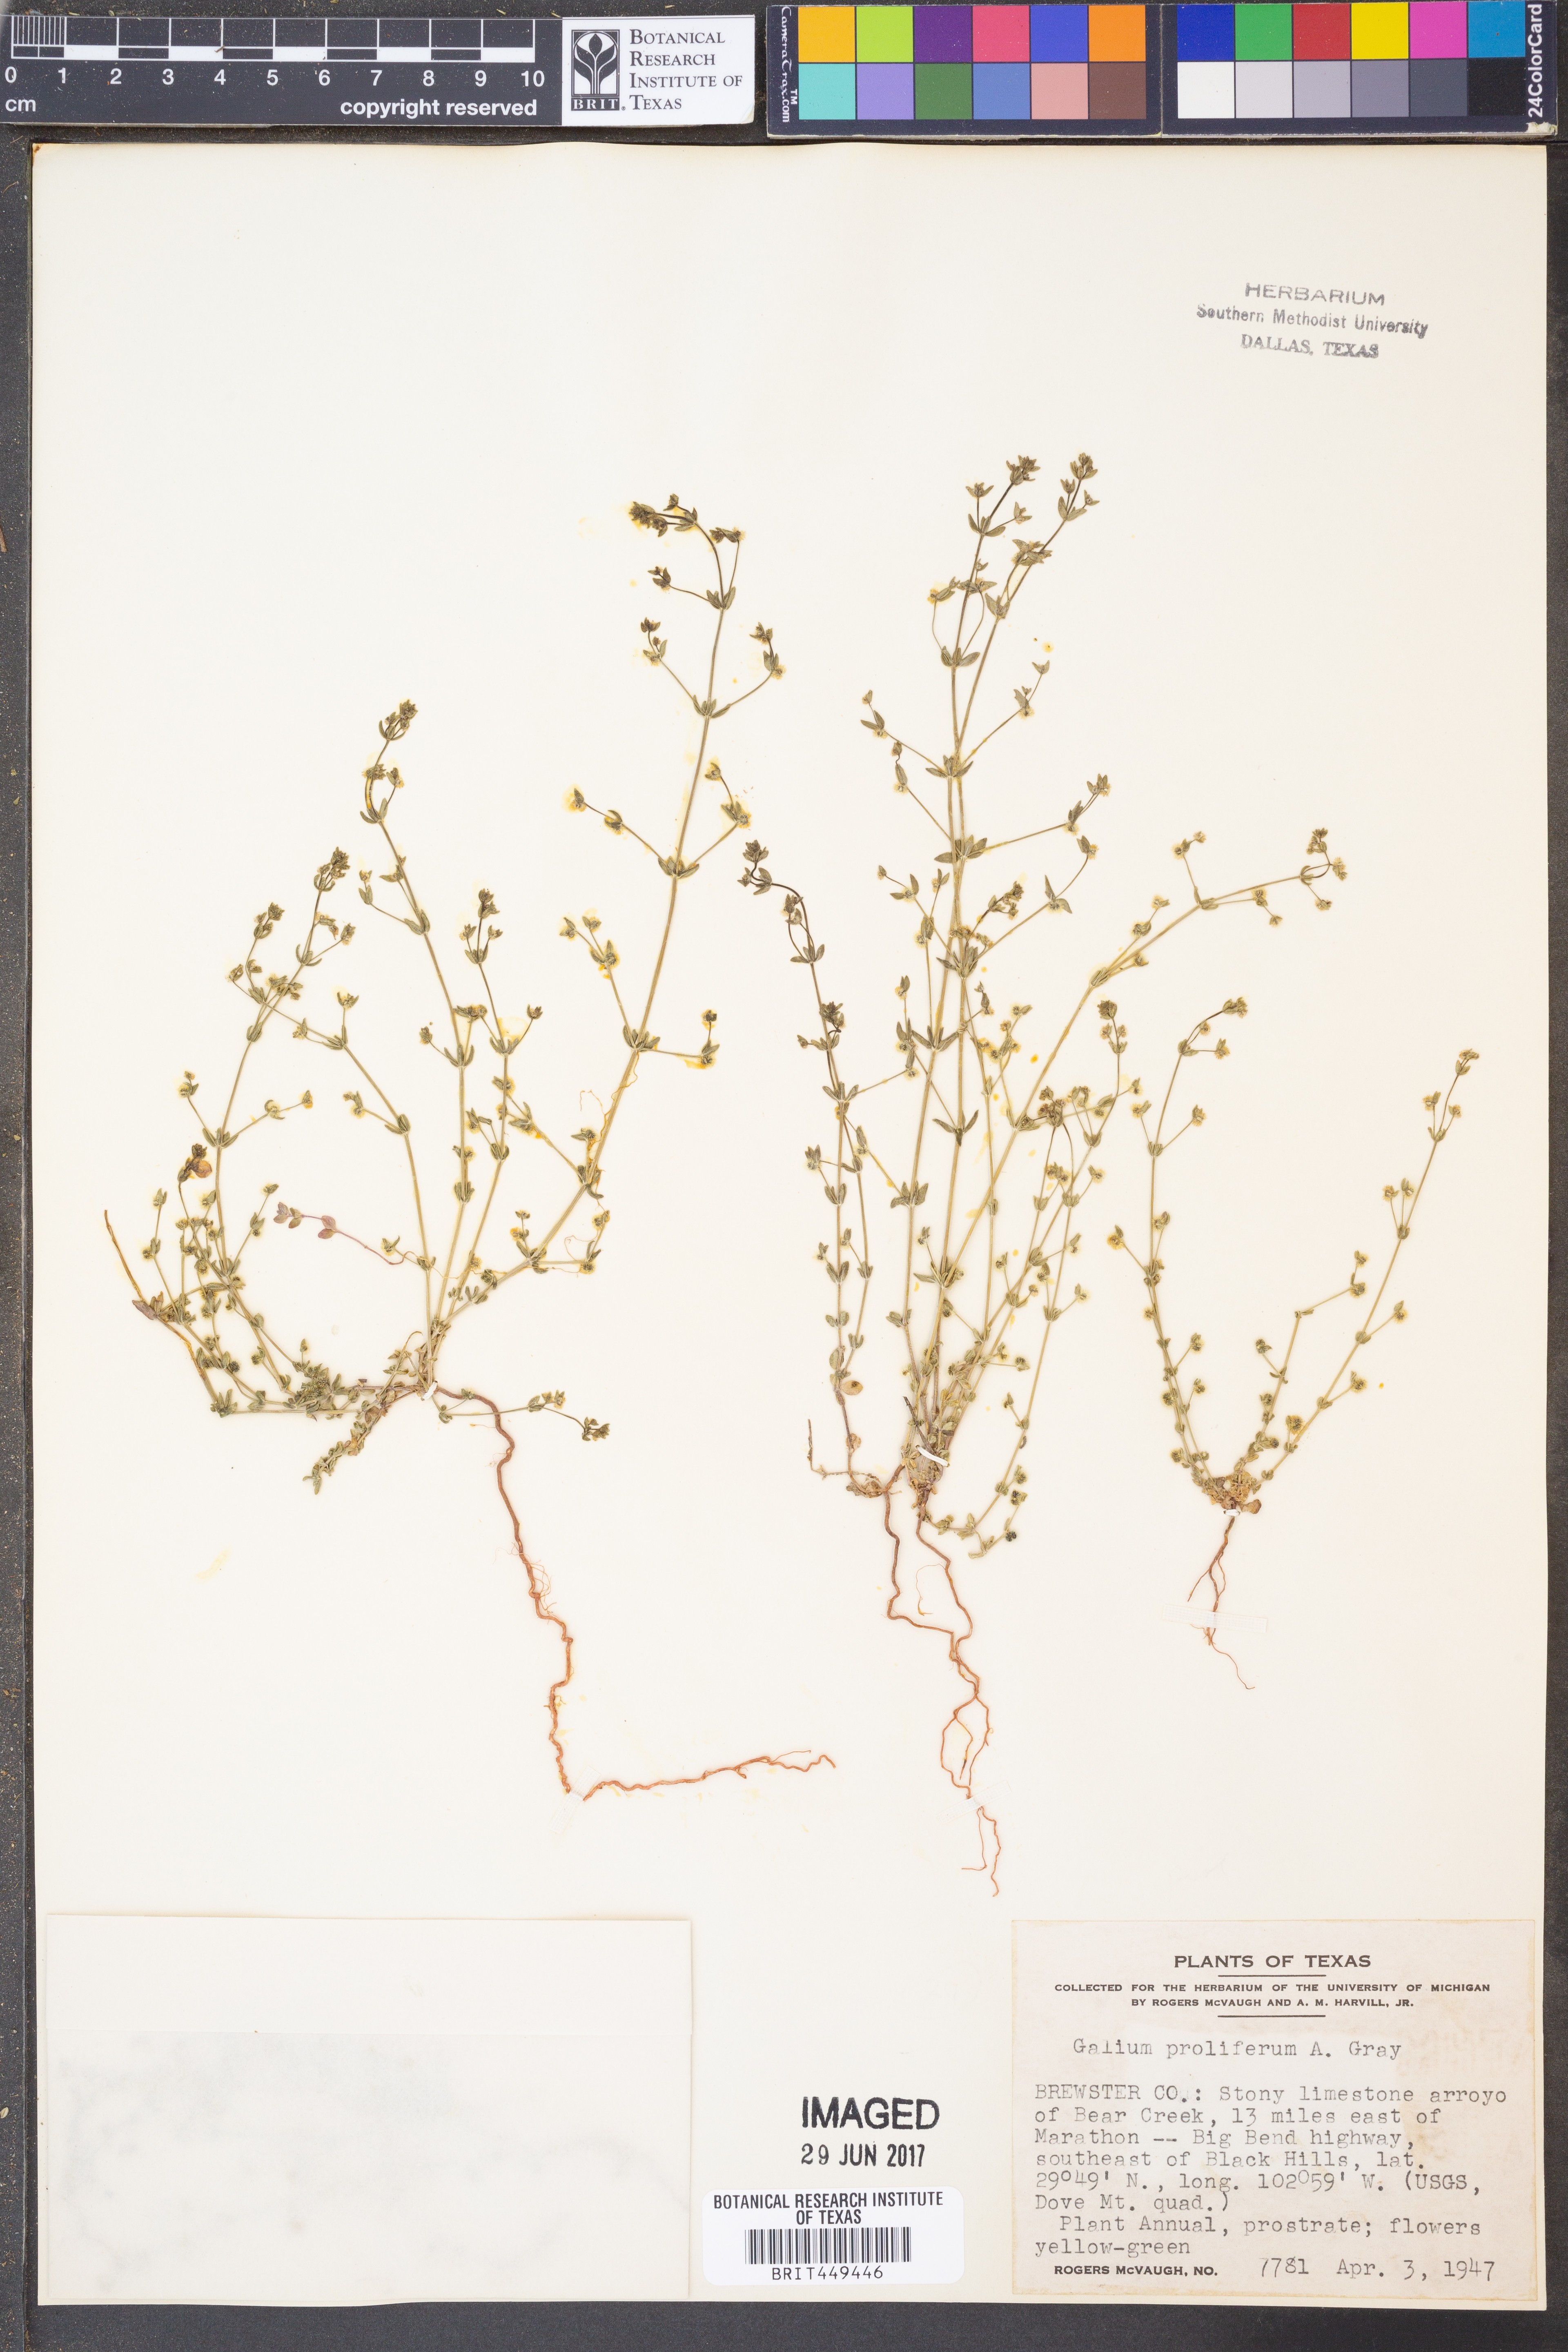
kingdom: Plantae
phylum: Tracheophyta
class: Magnoliopsida
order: Gentianales
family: Rubiaceae
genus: Galium
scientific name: Galium proliferum
